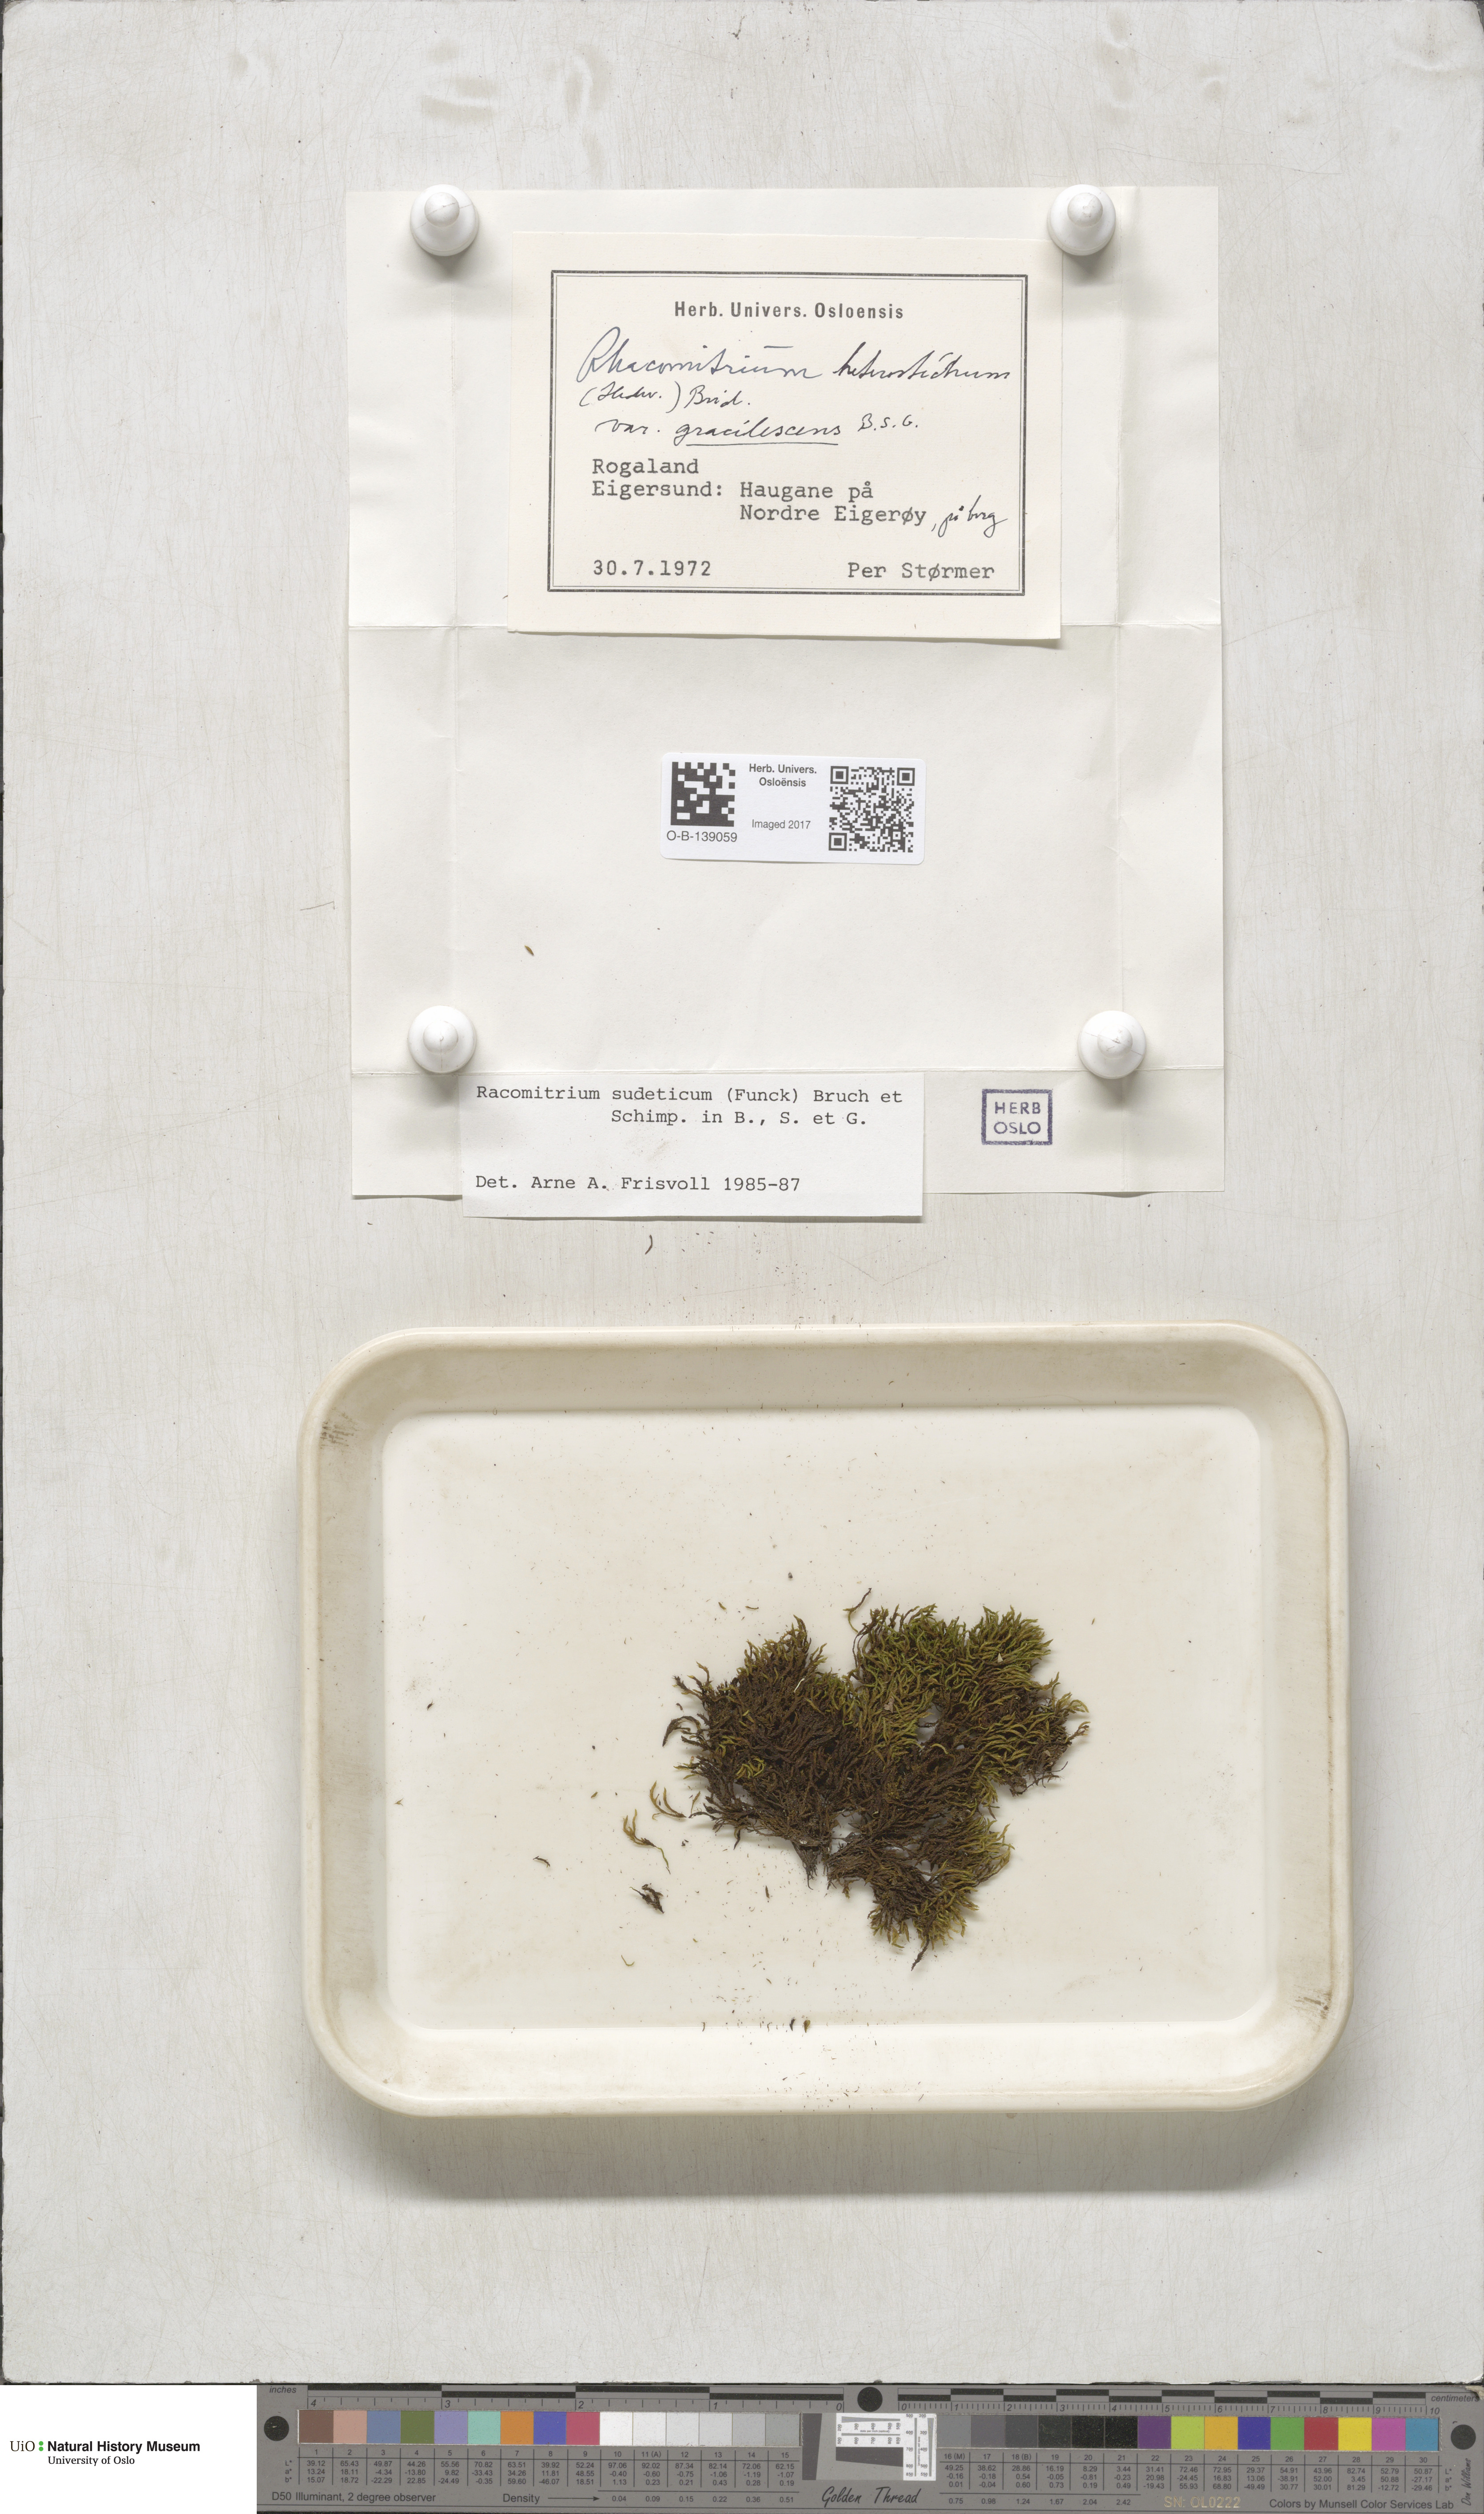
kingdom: Plantae
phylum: Bryophyta
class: Bryopsida
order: Grimmiales
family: Grimmiaceae
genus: Bucklandiella
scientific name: Bucklandiella sudetica
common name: Slender fringe-moss
